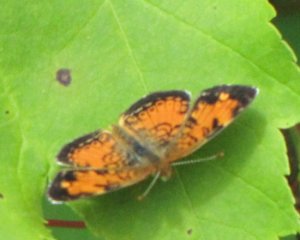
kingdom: Animalia
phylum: Arthropoda
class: Insecta
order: Lepidoptera
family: Nymphalidae
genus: Phyciodes
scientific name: Phyciodes tharos
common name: Northern Crescent
